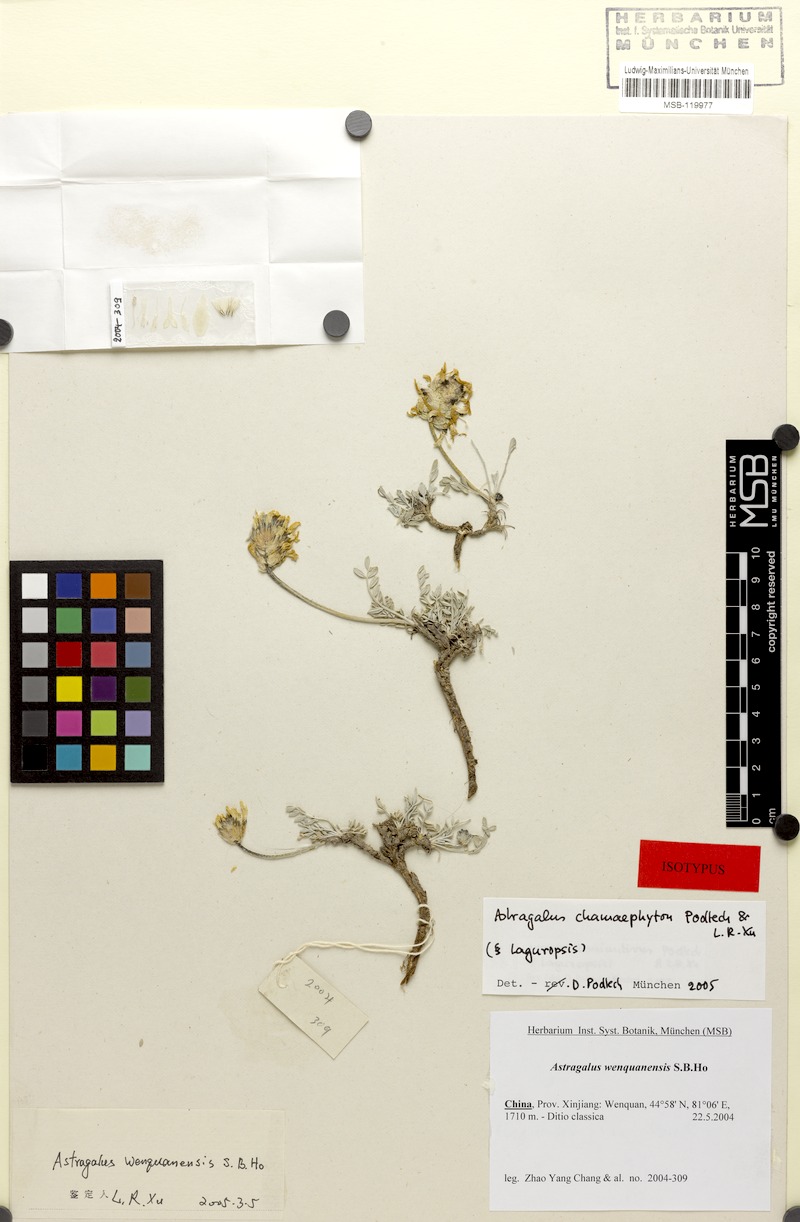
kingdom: Plantae
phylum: Tracheophyta
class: Magnoliopsida
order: Fabales
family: Fabaceae
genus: Astragalus
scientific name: Astragalus chamaephyton
